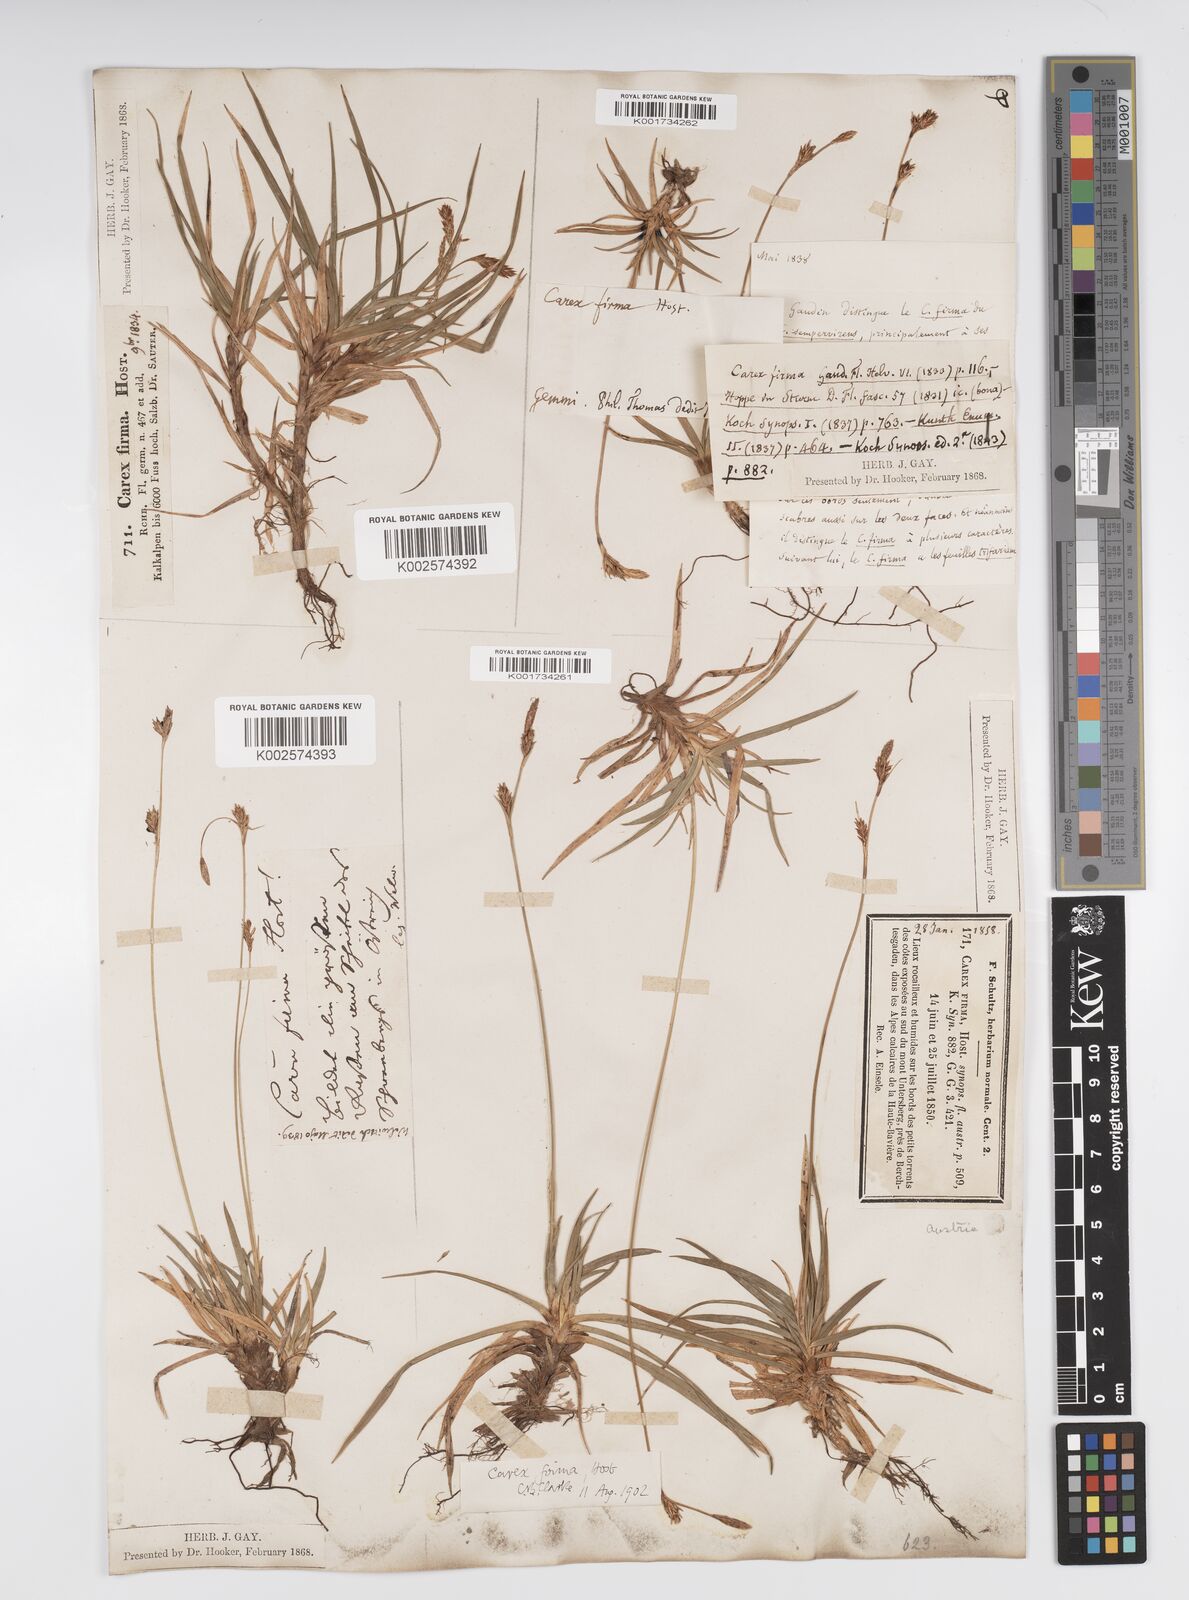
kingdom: Plantae
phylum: Tracheophyta
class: Liliopsida
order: Poales
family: Cyperaceae
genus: Carex
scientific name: Carex firma
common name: Dwarf pillow sedge
